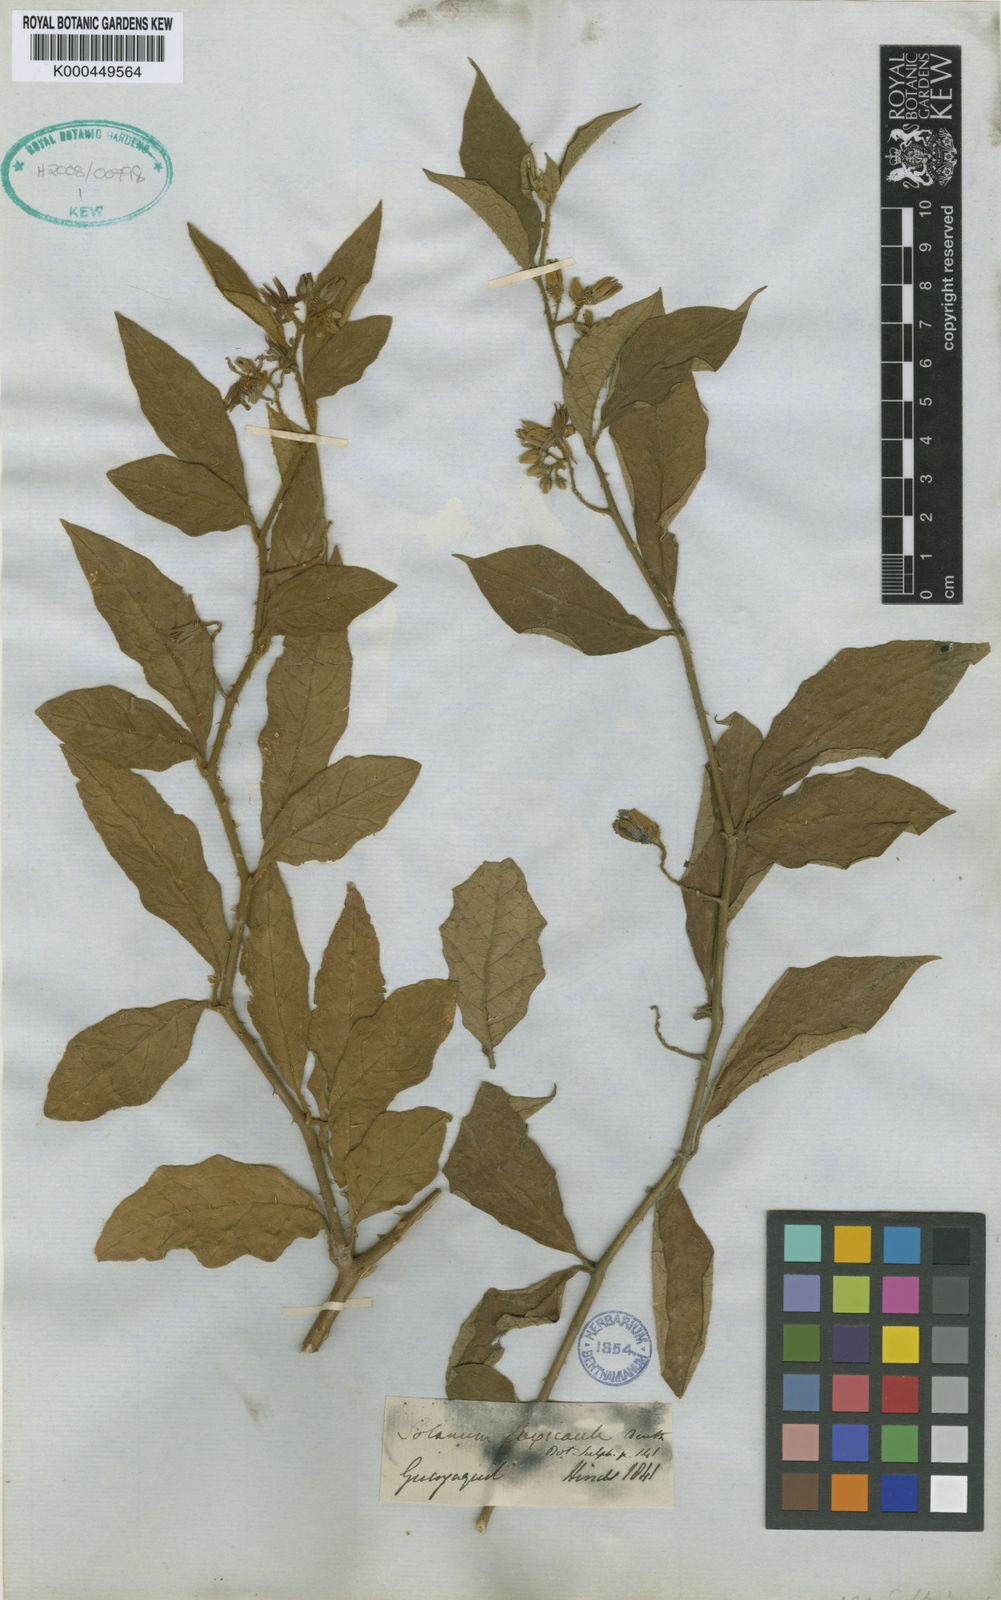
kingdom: Plantae
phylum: Tracheophyta
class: Magnoliopsida
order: Solanales
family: Solanaceae
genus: Solanum
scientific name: Solanum flexicaule
